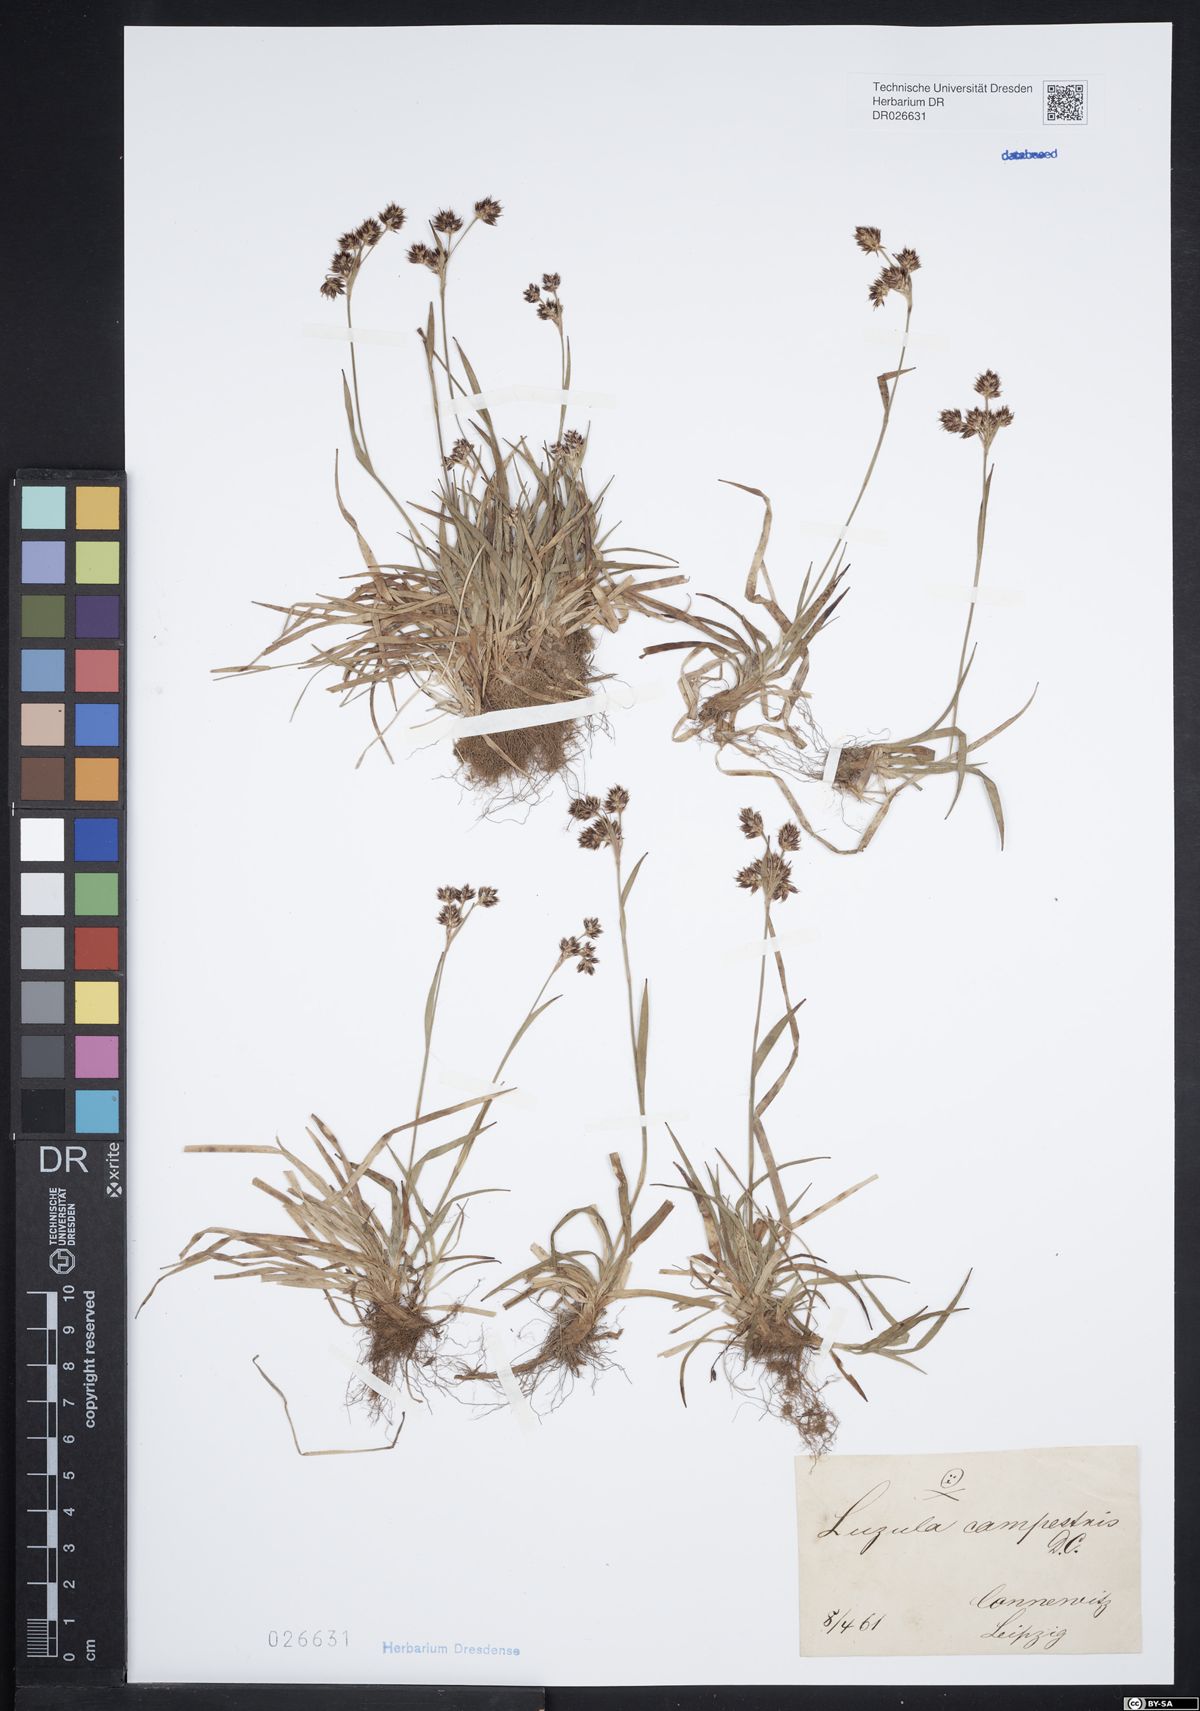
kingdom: Plantae
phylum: Tracheophyta
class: Liliopsida
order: Poales
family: Juncaceae
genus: Luzula
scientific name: Luzula campestris
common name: Field wood-rush
